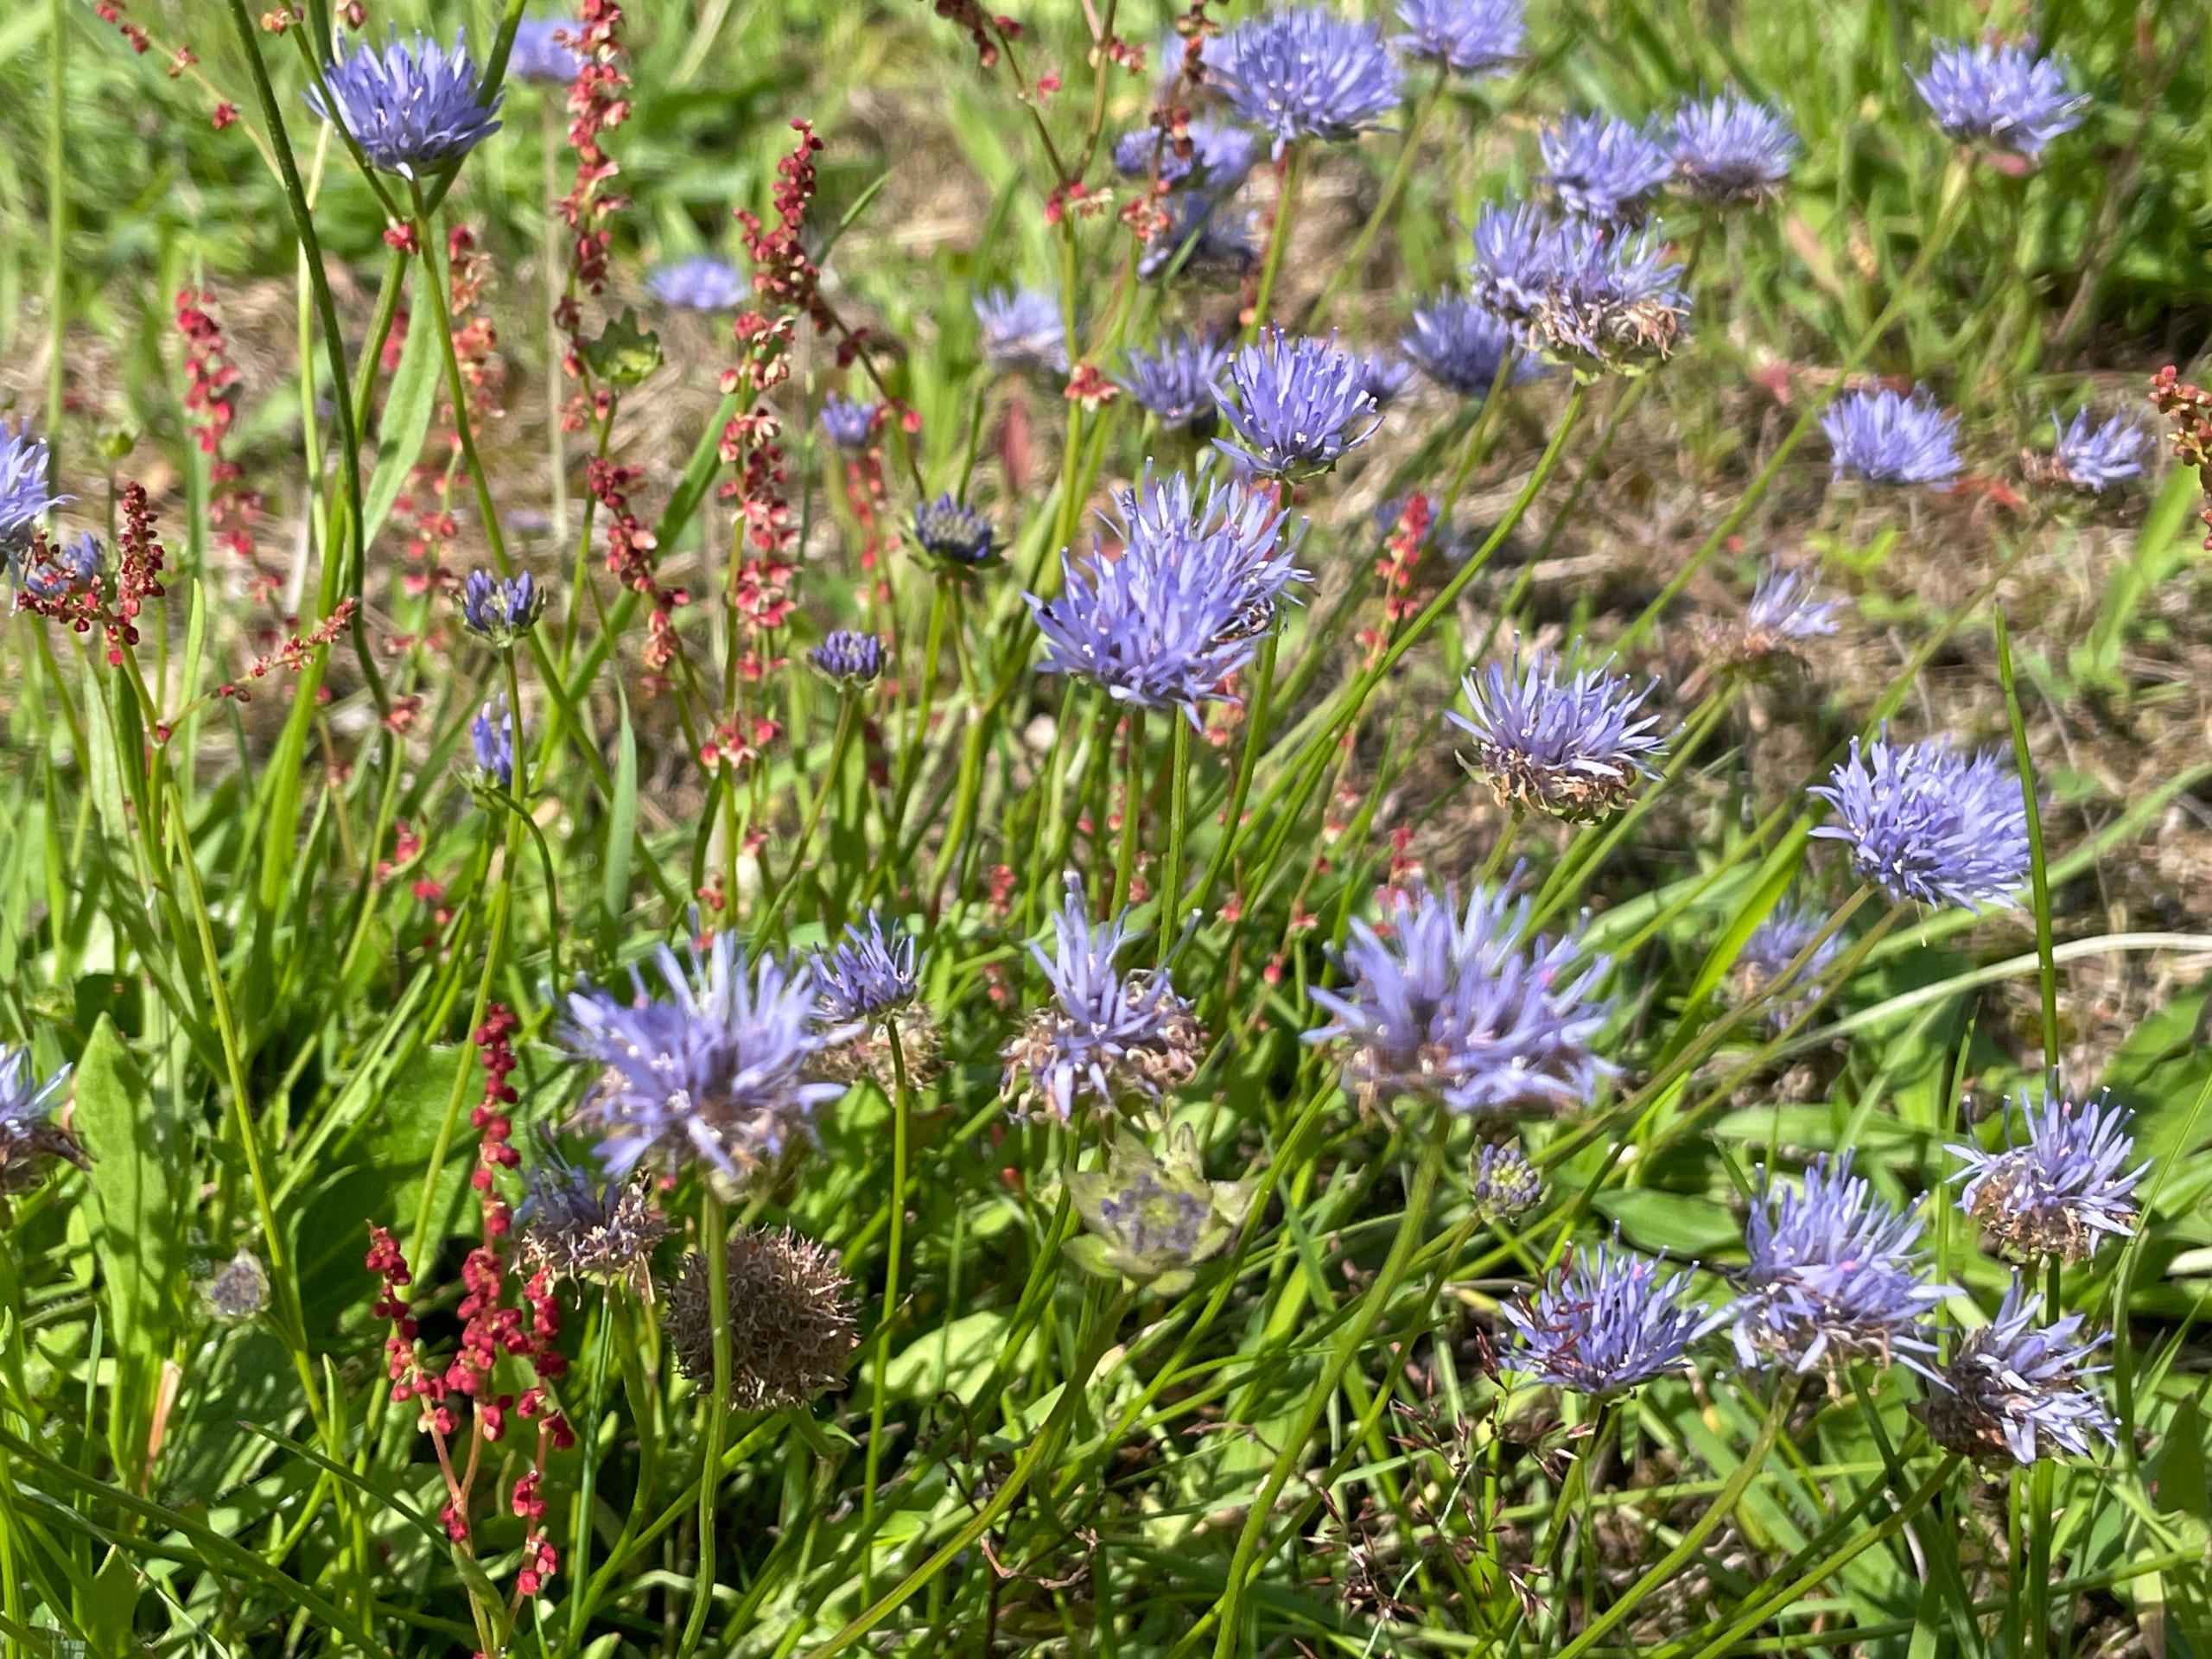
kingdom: Plantae
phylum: Tracheophyta
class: Magnoliopsida
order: Asterales
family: Campanulaceae
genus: Jasione
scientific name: Jasione montana
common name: Blåmunke
